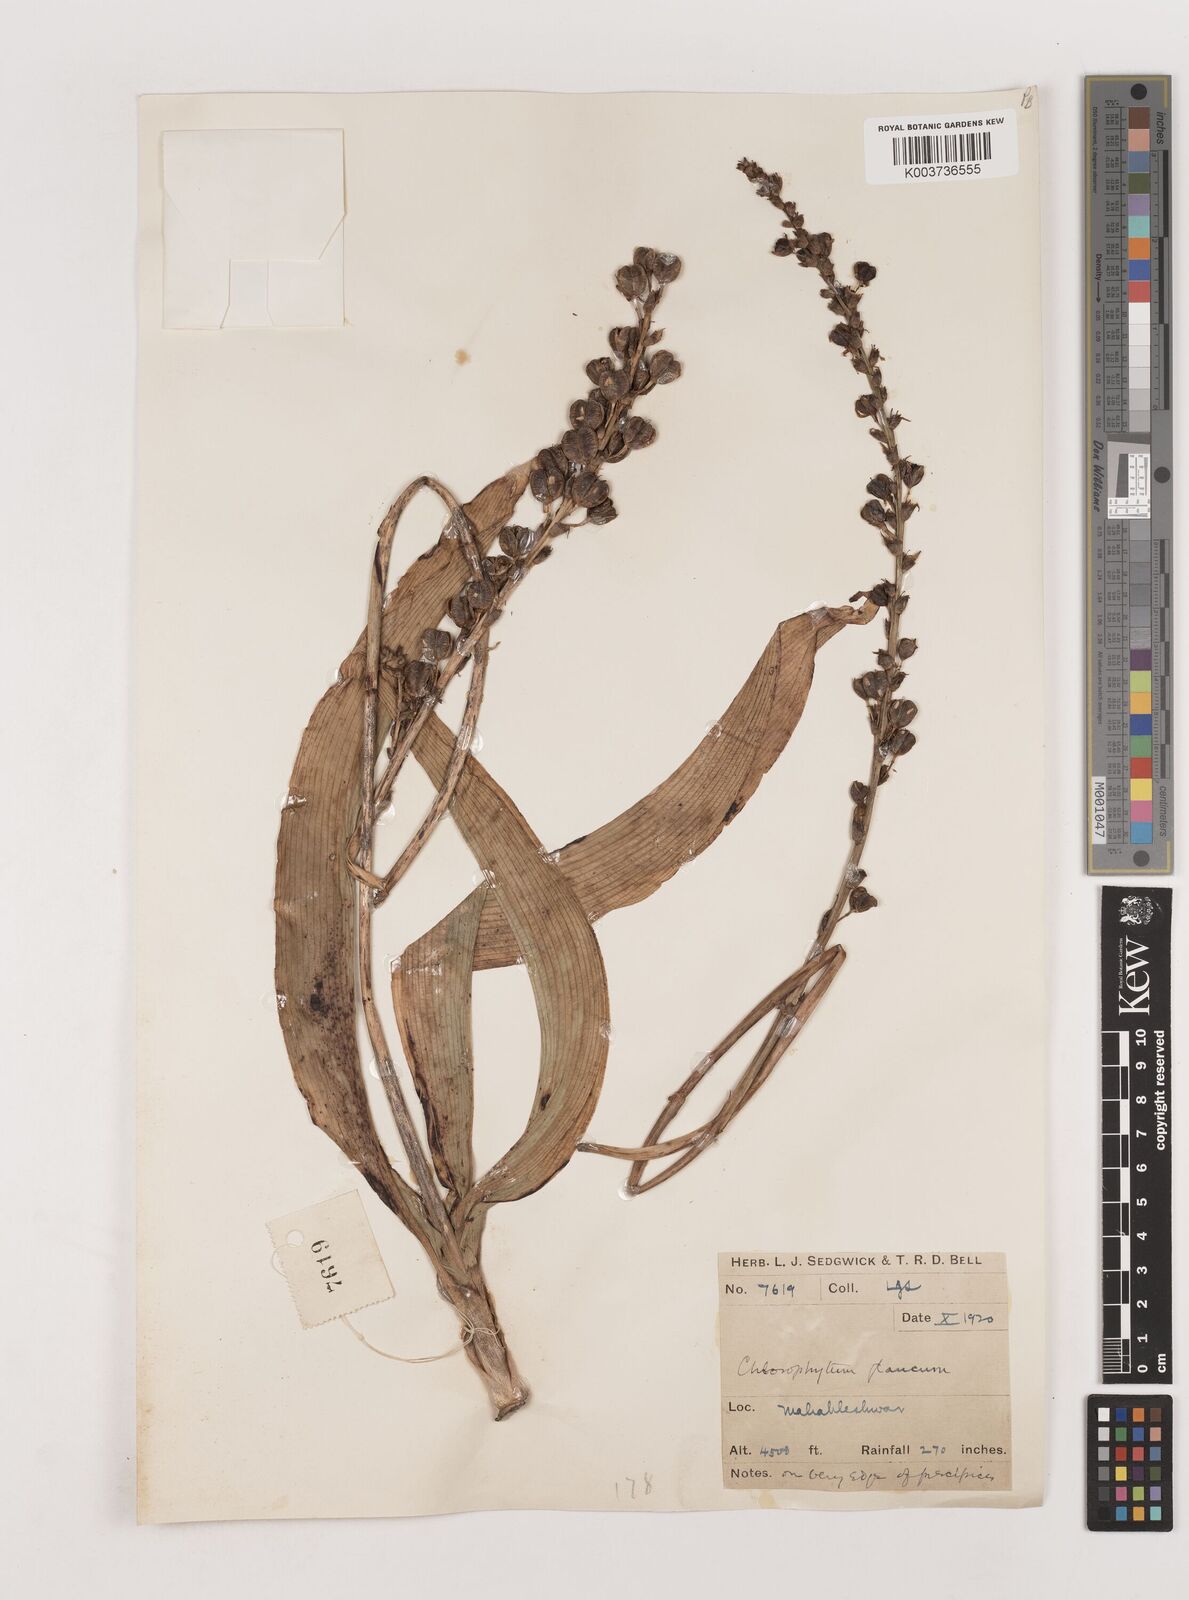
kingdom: Plantae
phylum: Tracheophyta
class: Liliopsida
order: Asparagales
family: Asparagaceae
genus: Chlorophytum
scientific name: Chlorophytum glaucum
